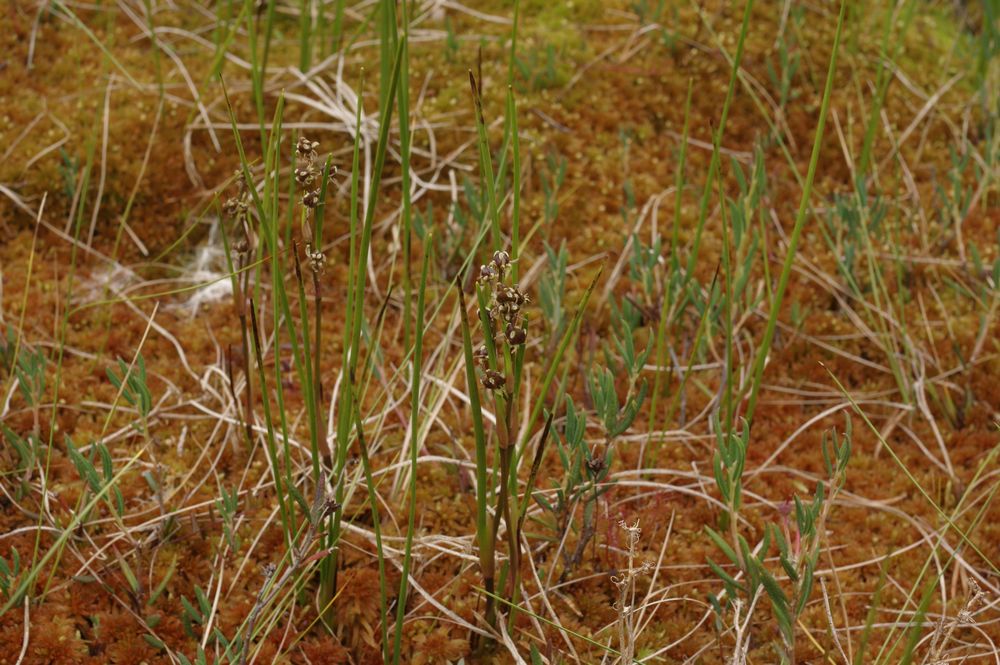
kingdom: Plantae
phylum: Tracheophyta
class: Liliopsida
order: Alismatales
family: Scheuchzeriaceae
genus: Scheuchzeria
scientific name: Scheuchzeria palustris
